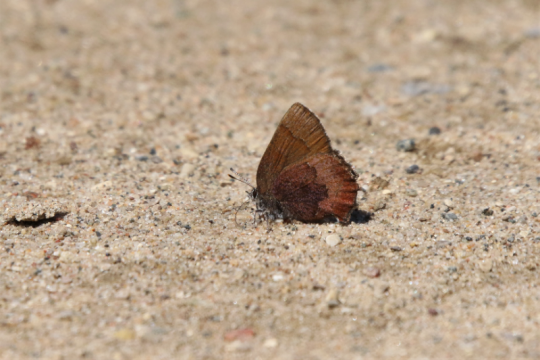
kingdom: Animalia
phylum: Arthropoda
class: Insecta
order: Lepidoptera
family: Lycaenidae
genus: Incisalia
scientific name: Incisalia irioides
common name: Brown Elfin
